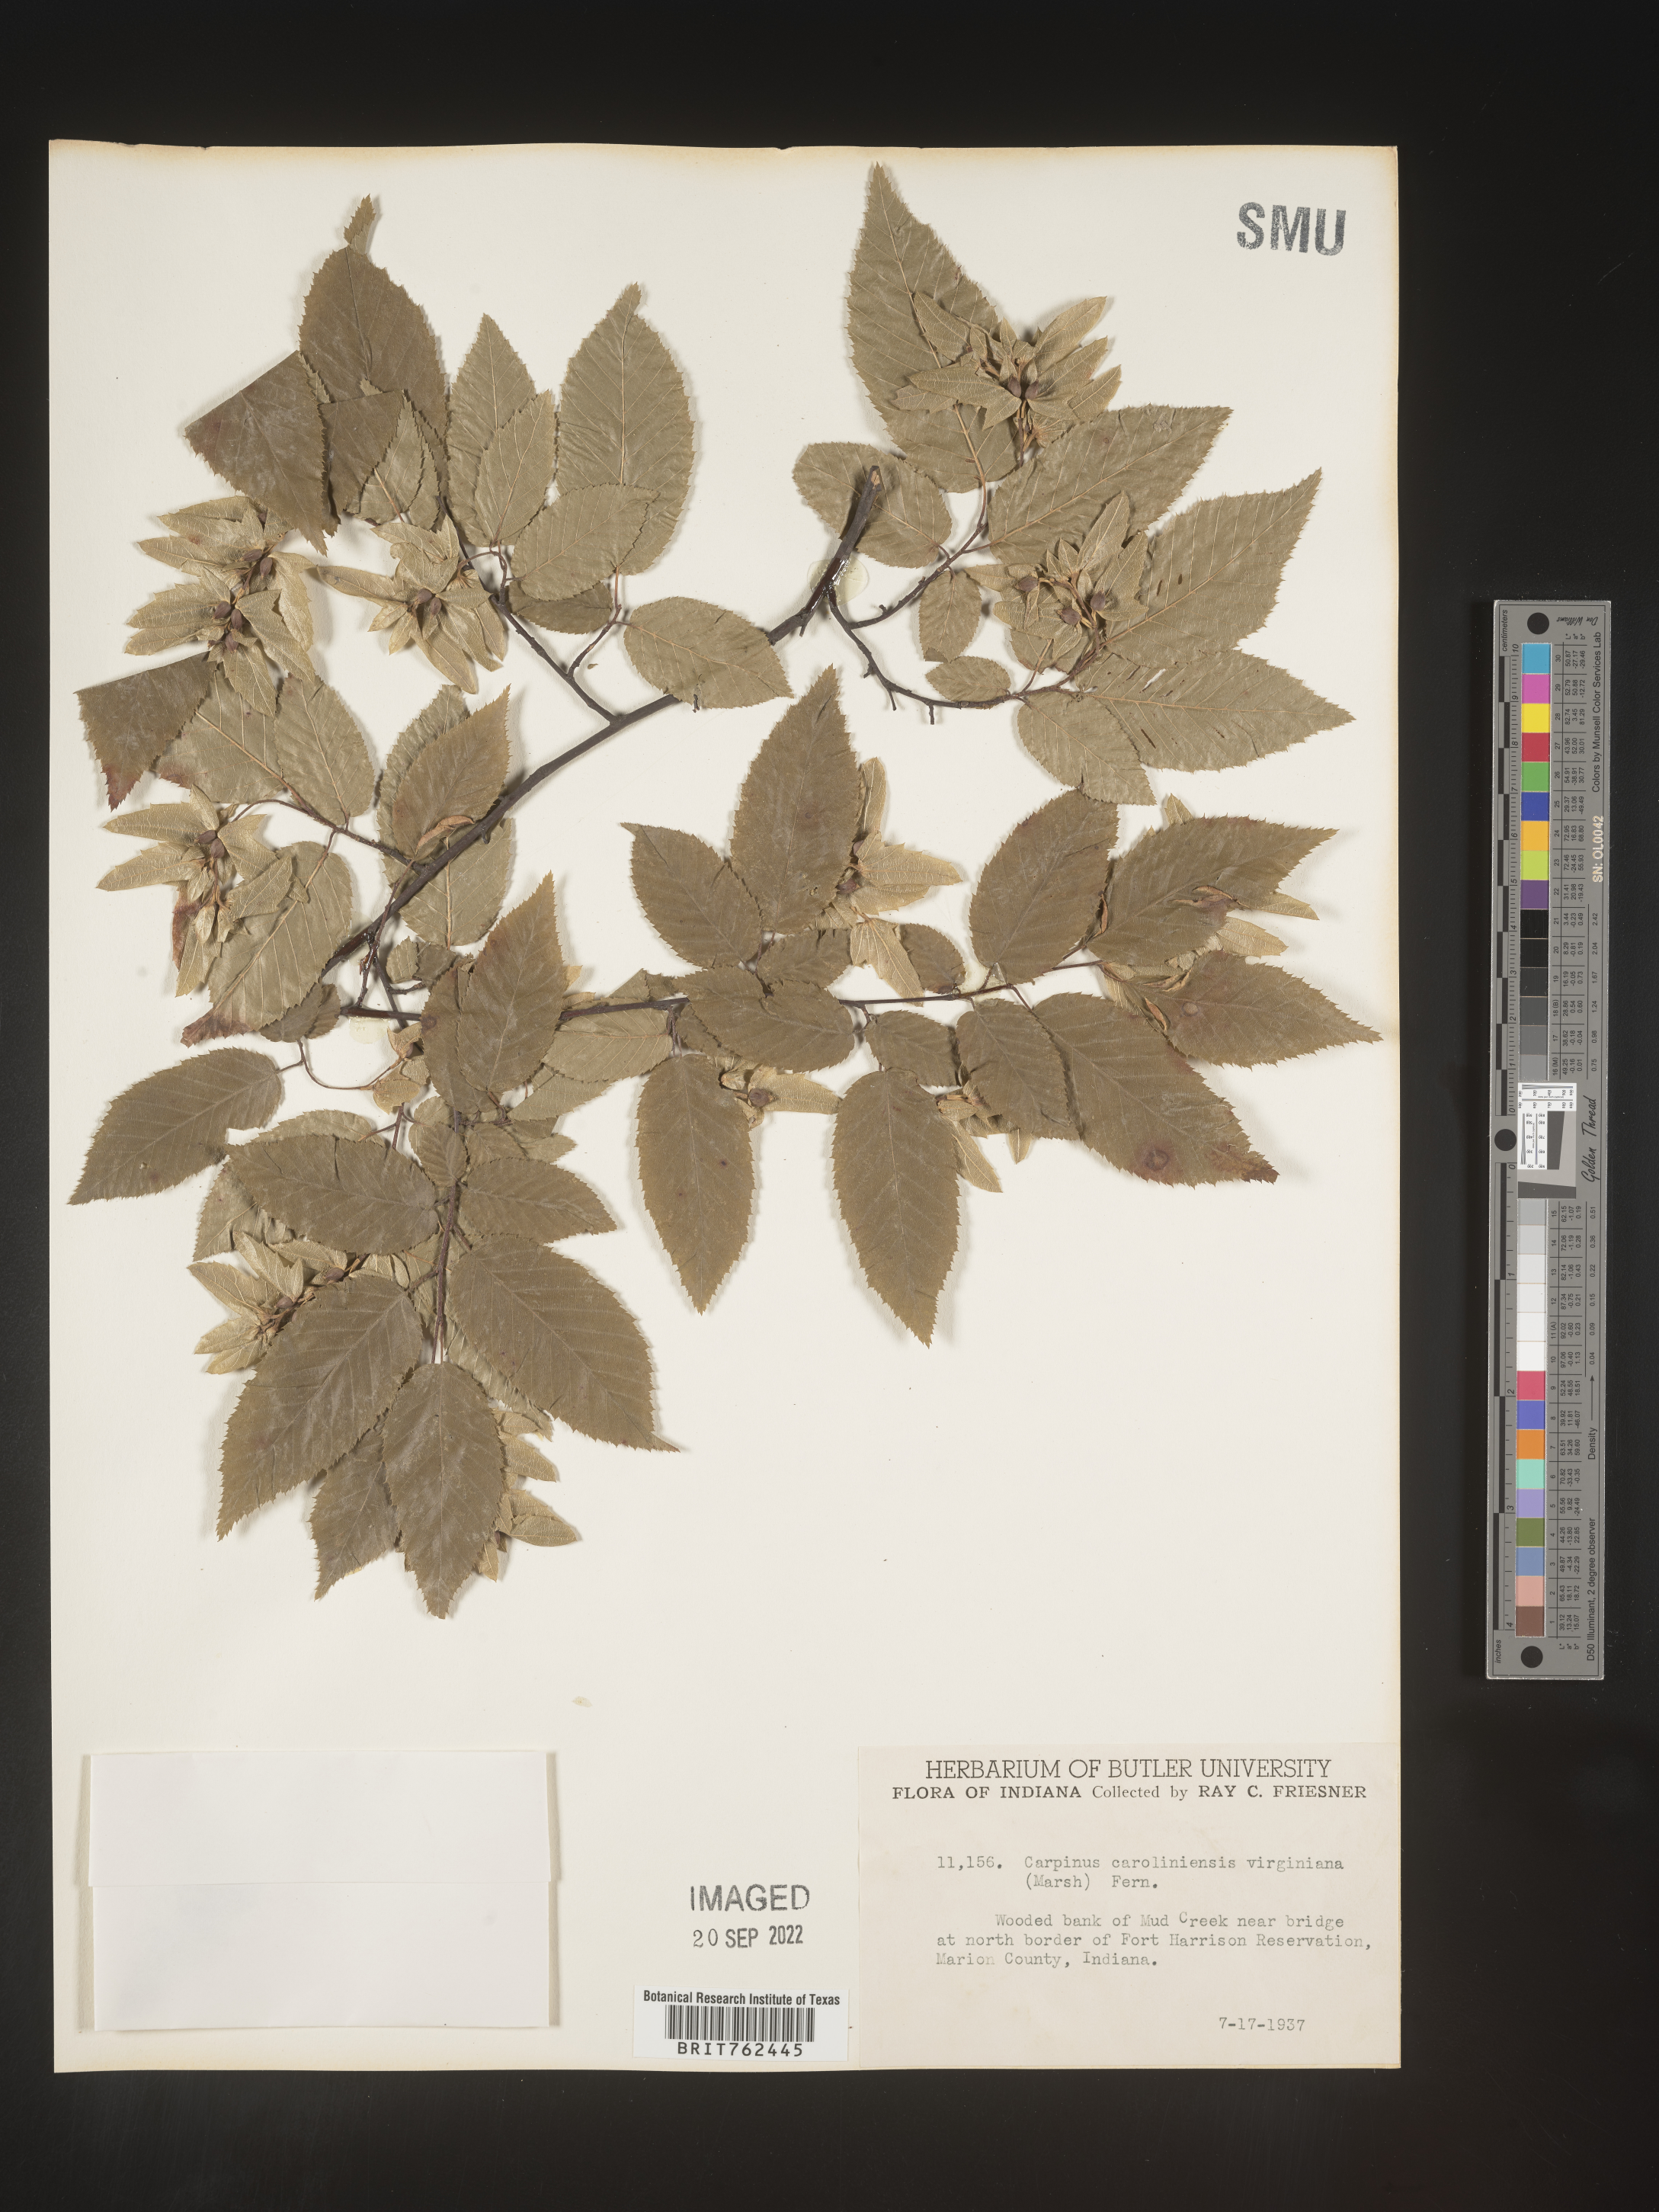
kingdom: Plantae
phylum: Tracheophyta
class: Magnoliopsida
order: Fagales
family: Betulaceae
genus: Carpinus
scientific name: Carpinus caroliniana
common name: American hornbeam
